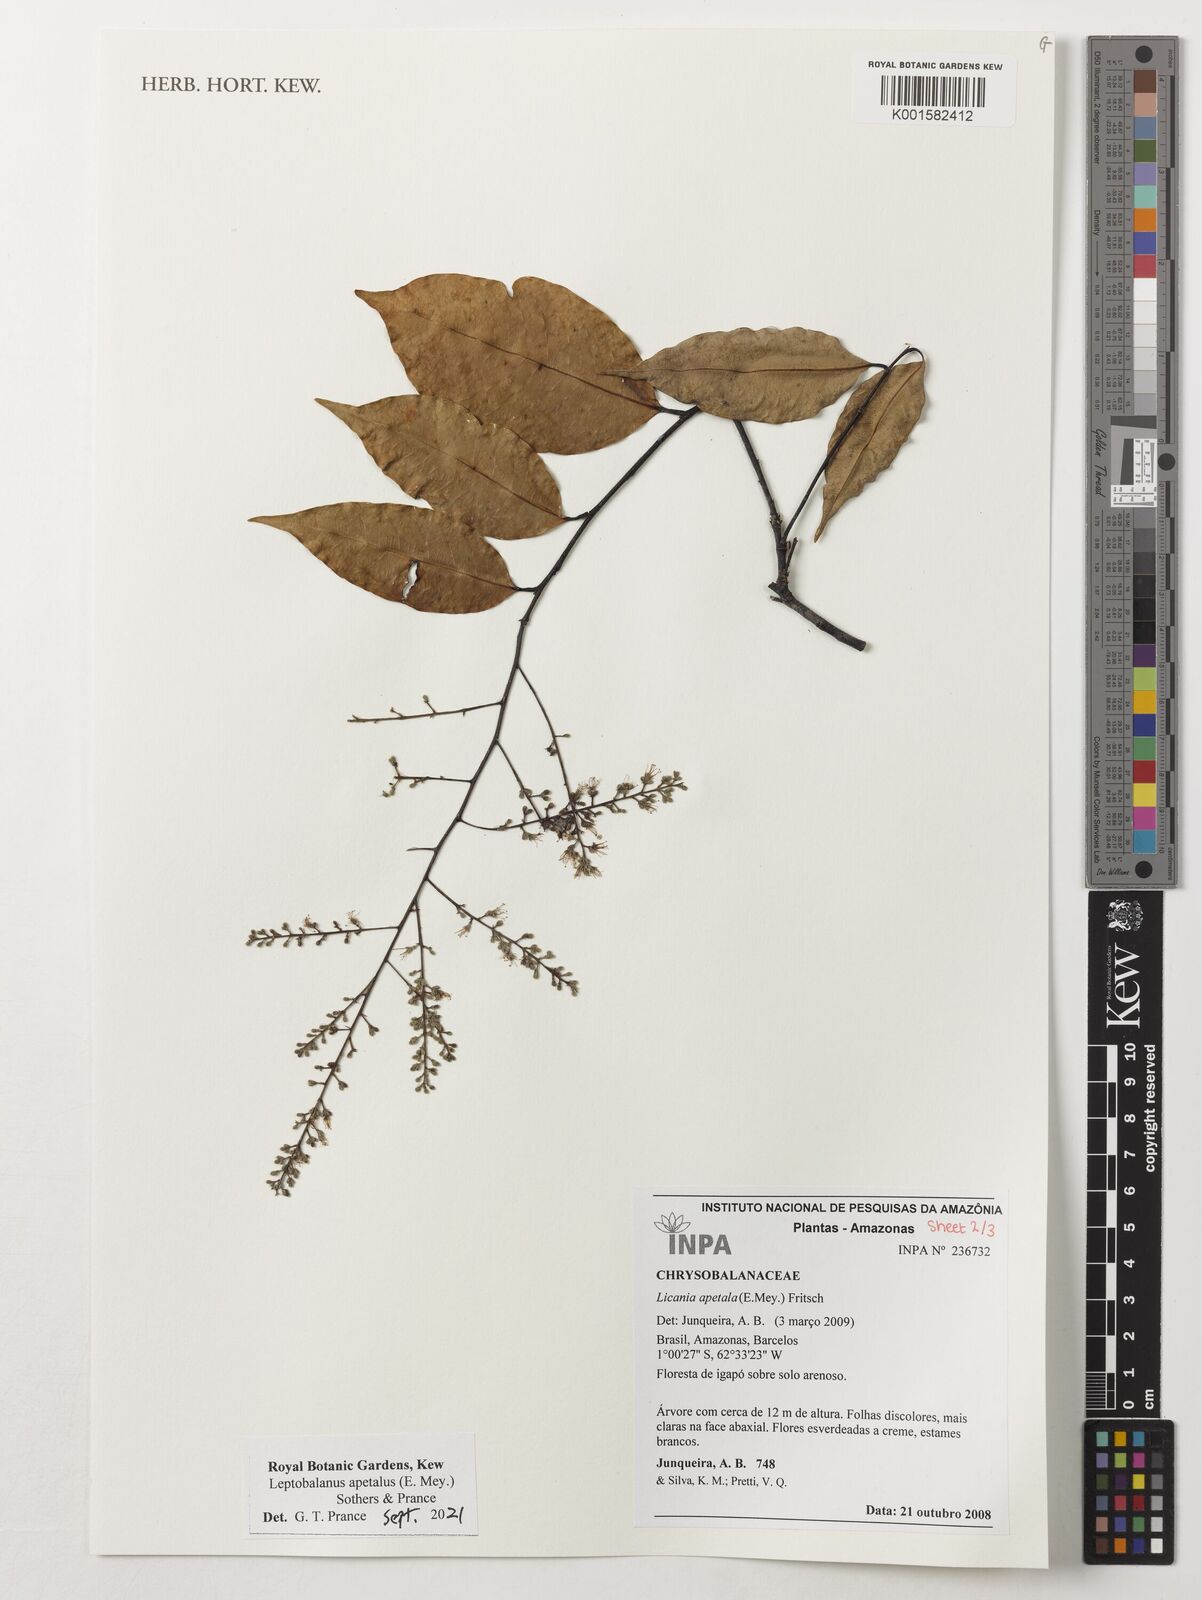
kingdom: Plantae
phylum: Tracheophyta
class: Magnoliopsida
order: Malpighiales
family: Chrysobalanaceae
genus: Leptobalanus
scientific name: Leptobalanus apetalus
